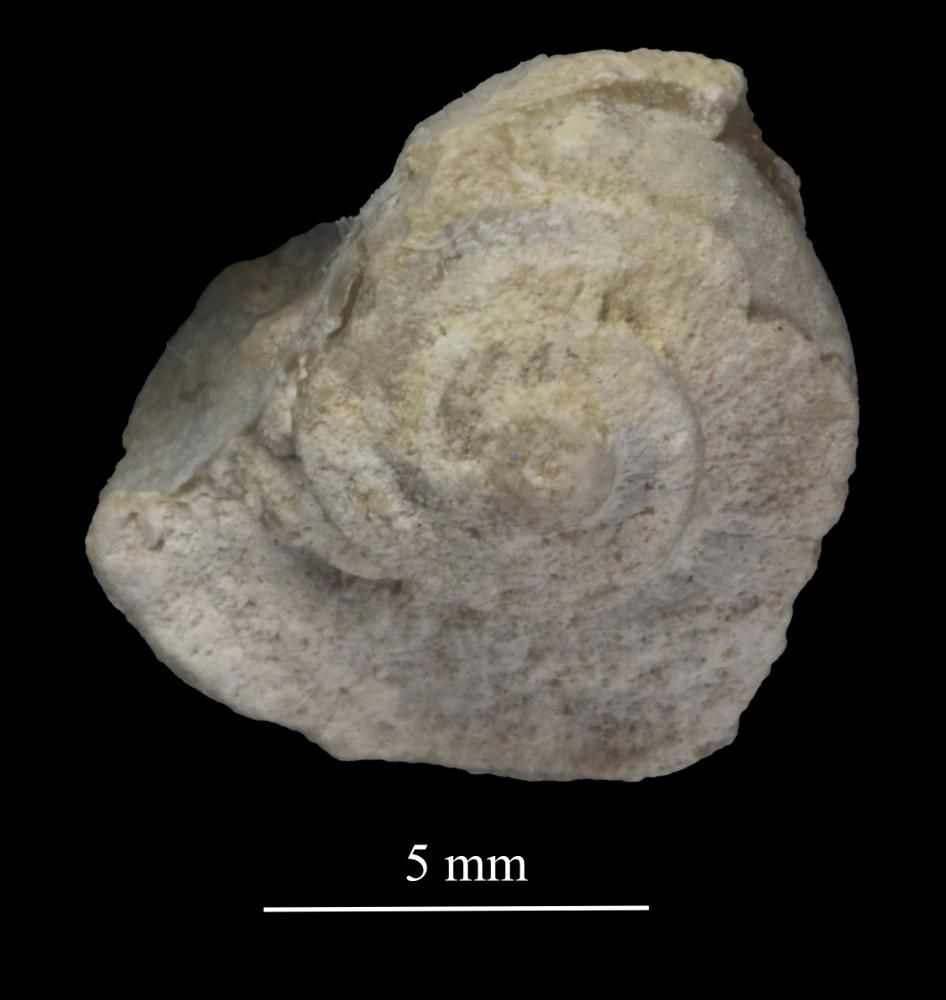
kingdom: Animalia
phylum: Mollusca
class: Gastropoda
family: Trochonematidae
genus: Trochonema
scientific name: Trochonema panderi
